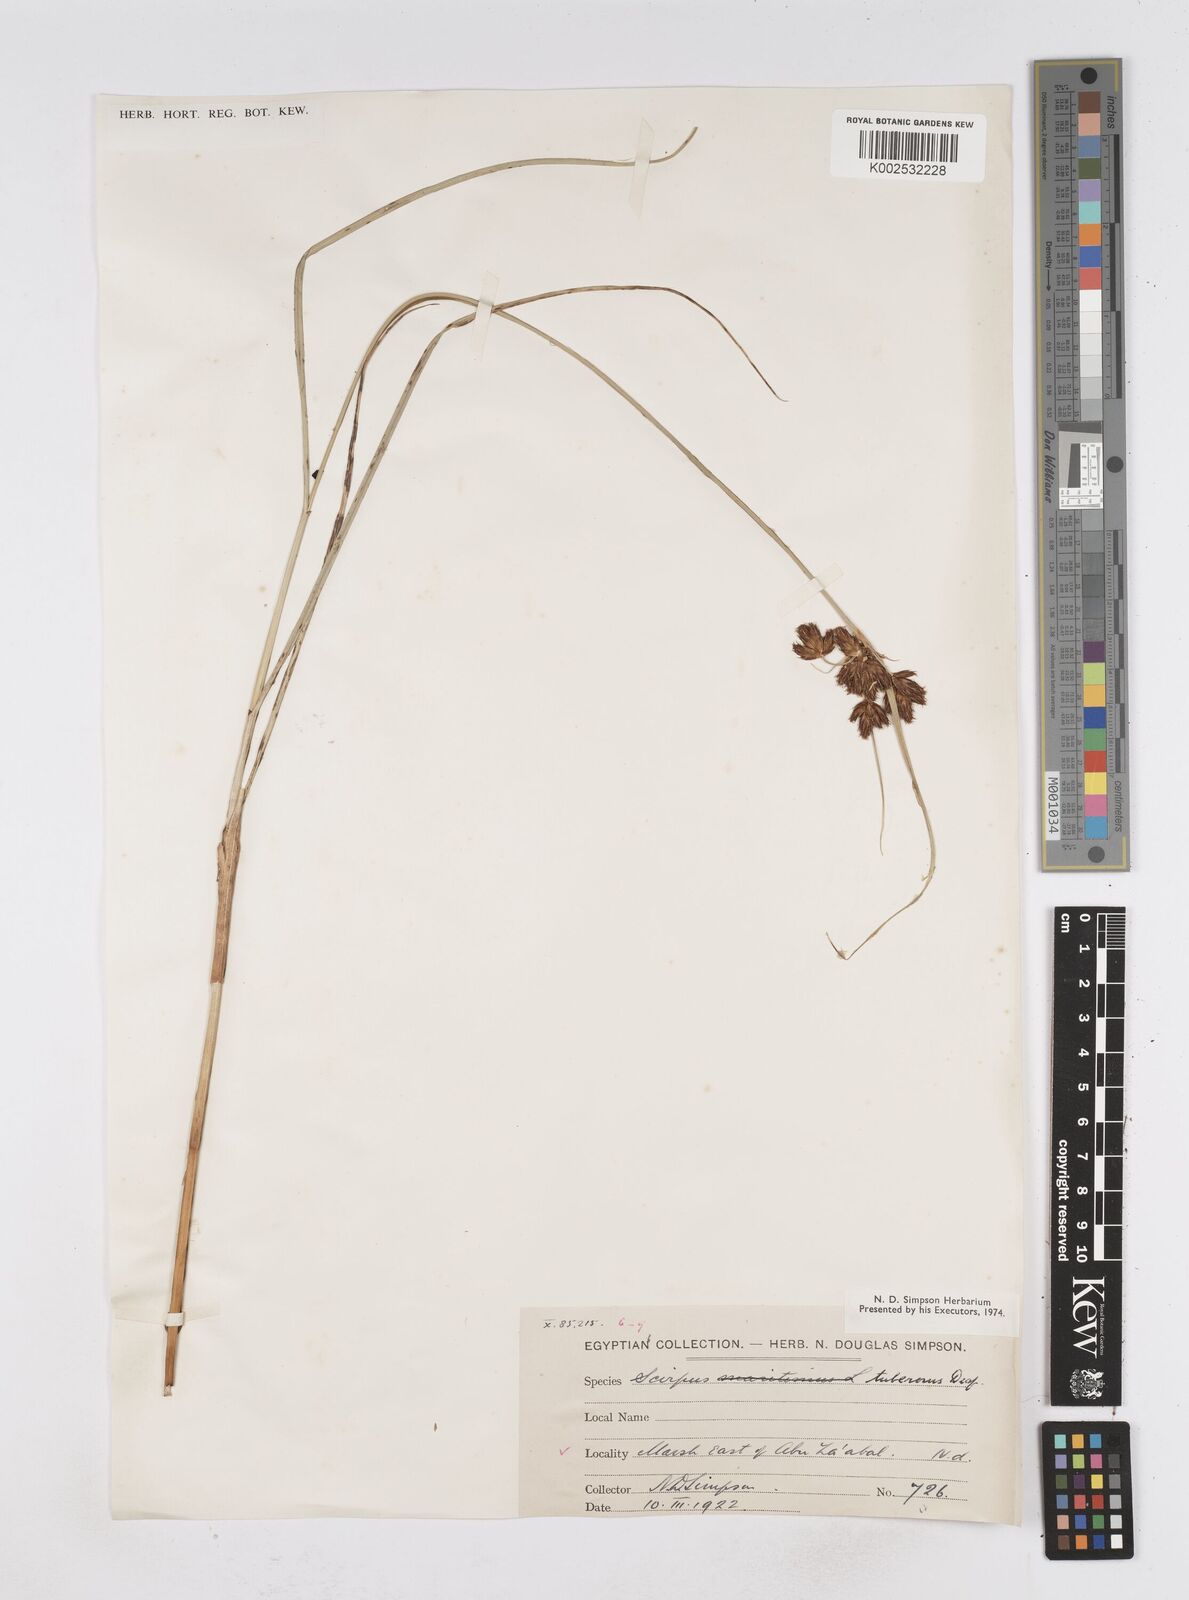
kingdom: Plantae
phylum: Tracheophyta
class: Liliopsida
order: Poales
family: Cyperaceae
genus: Bolboschoenus
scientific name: Bolboschoenus maritimus
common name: Sea club-rush
